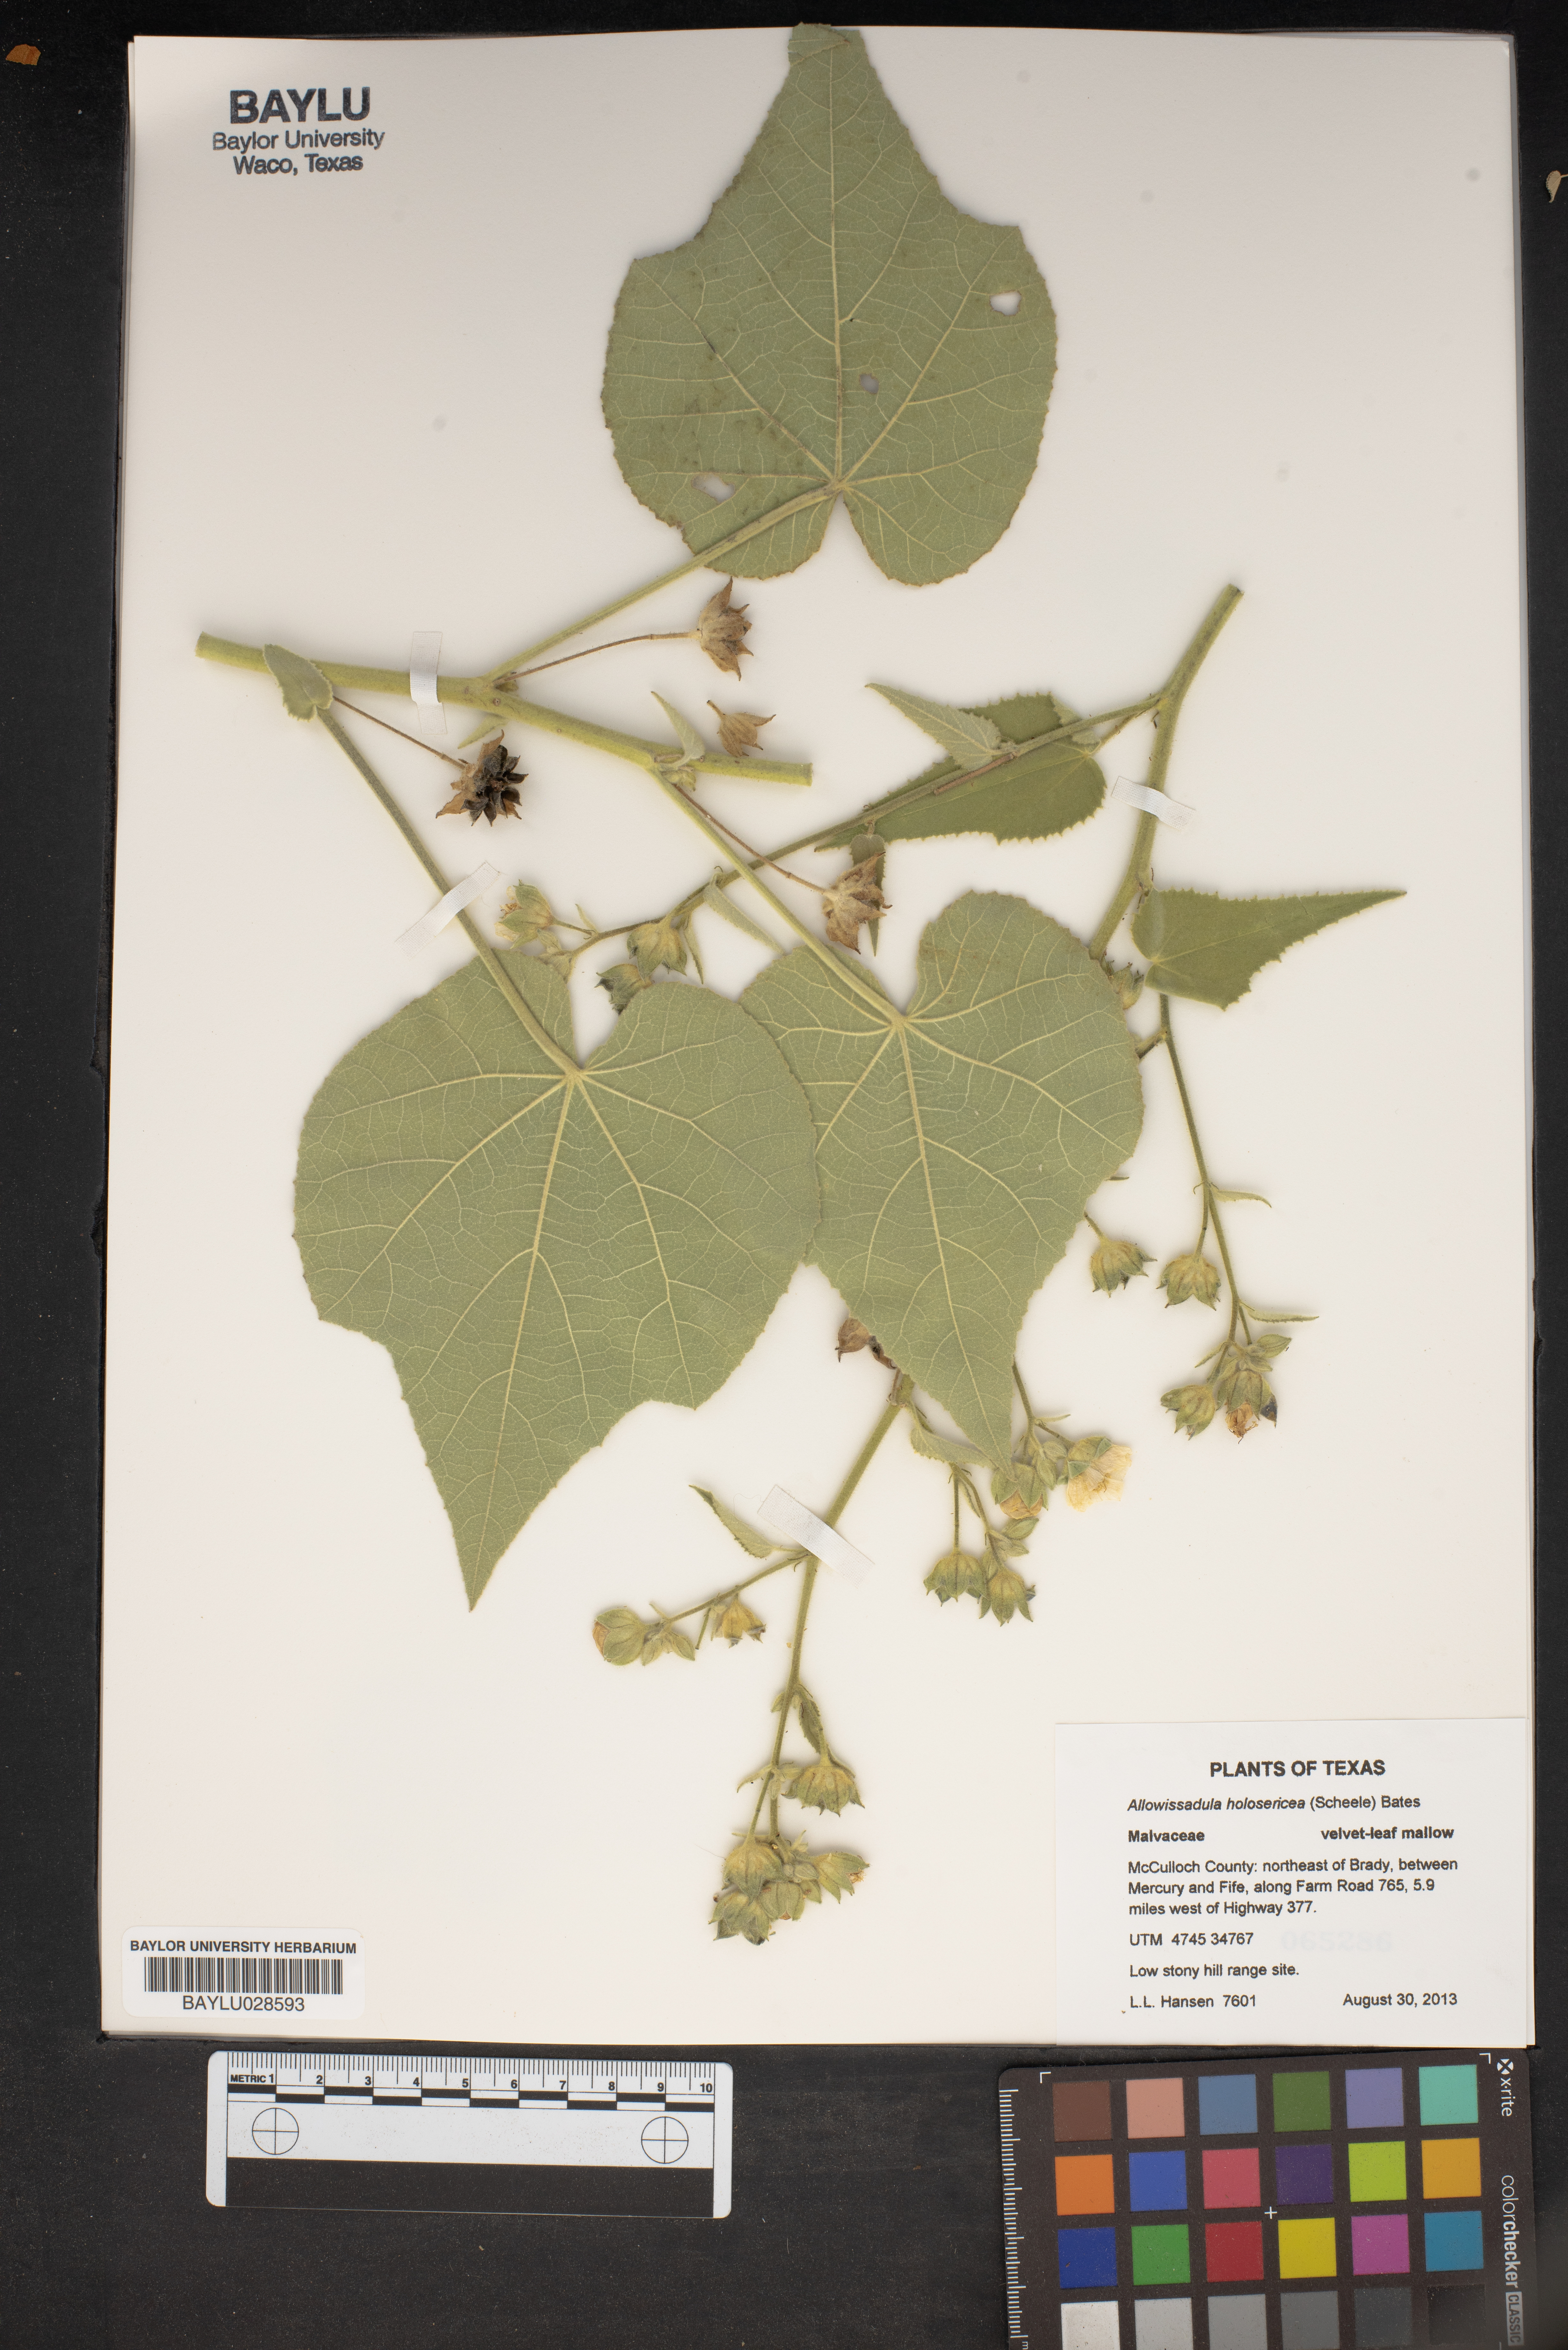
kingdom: Plantae
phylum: Tracheophyta
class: Magnoliopsida
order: Malvales
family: Malvaceae
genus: Allowissadula
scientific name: Allowissadula holosericea
